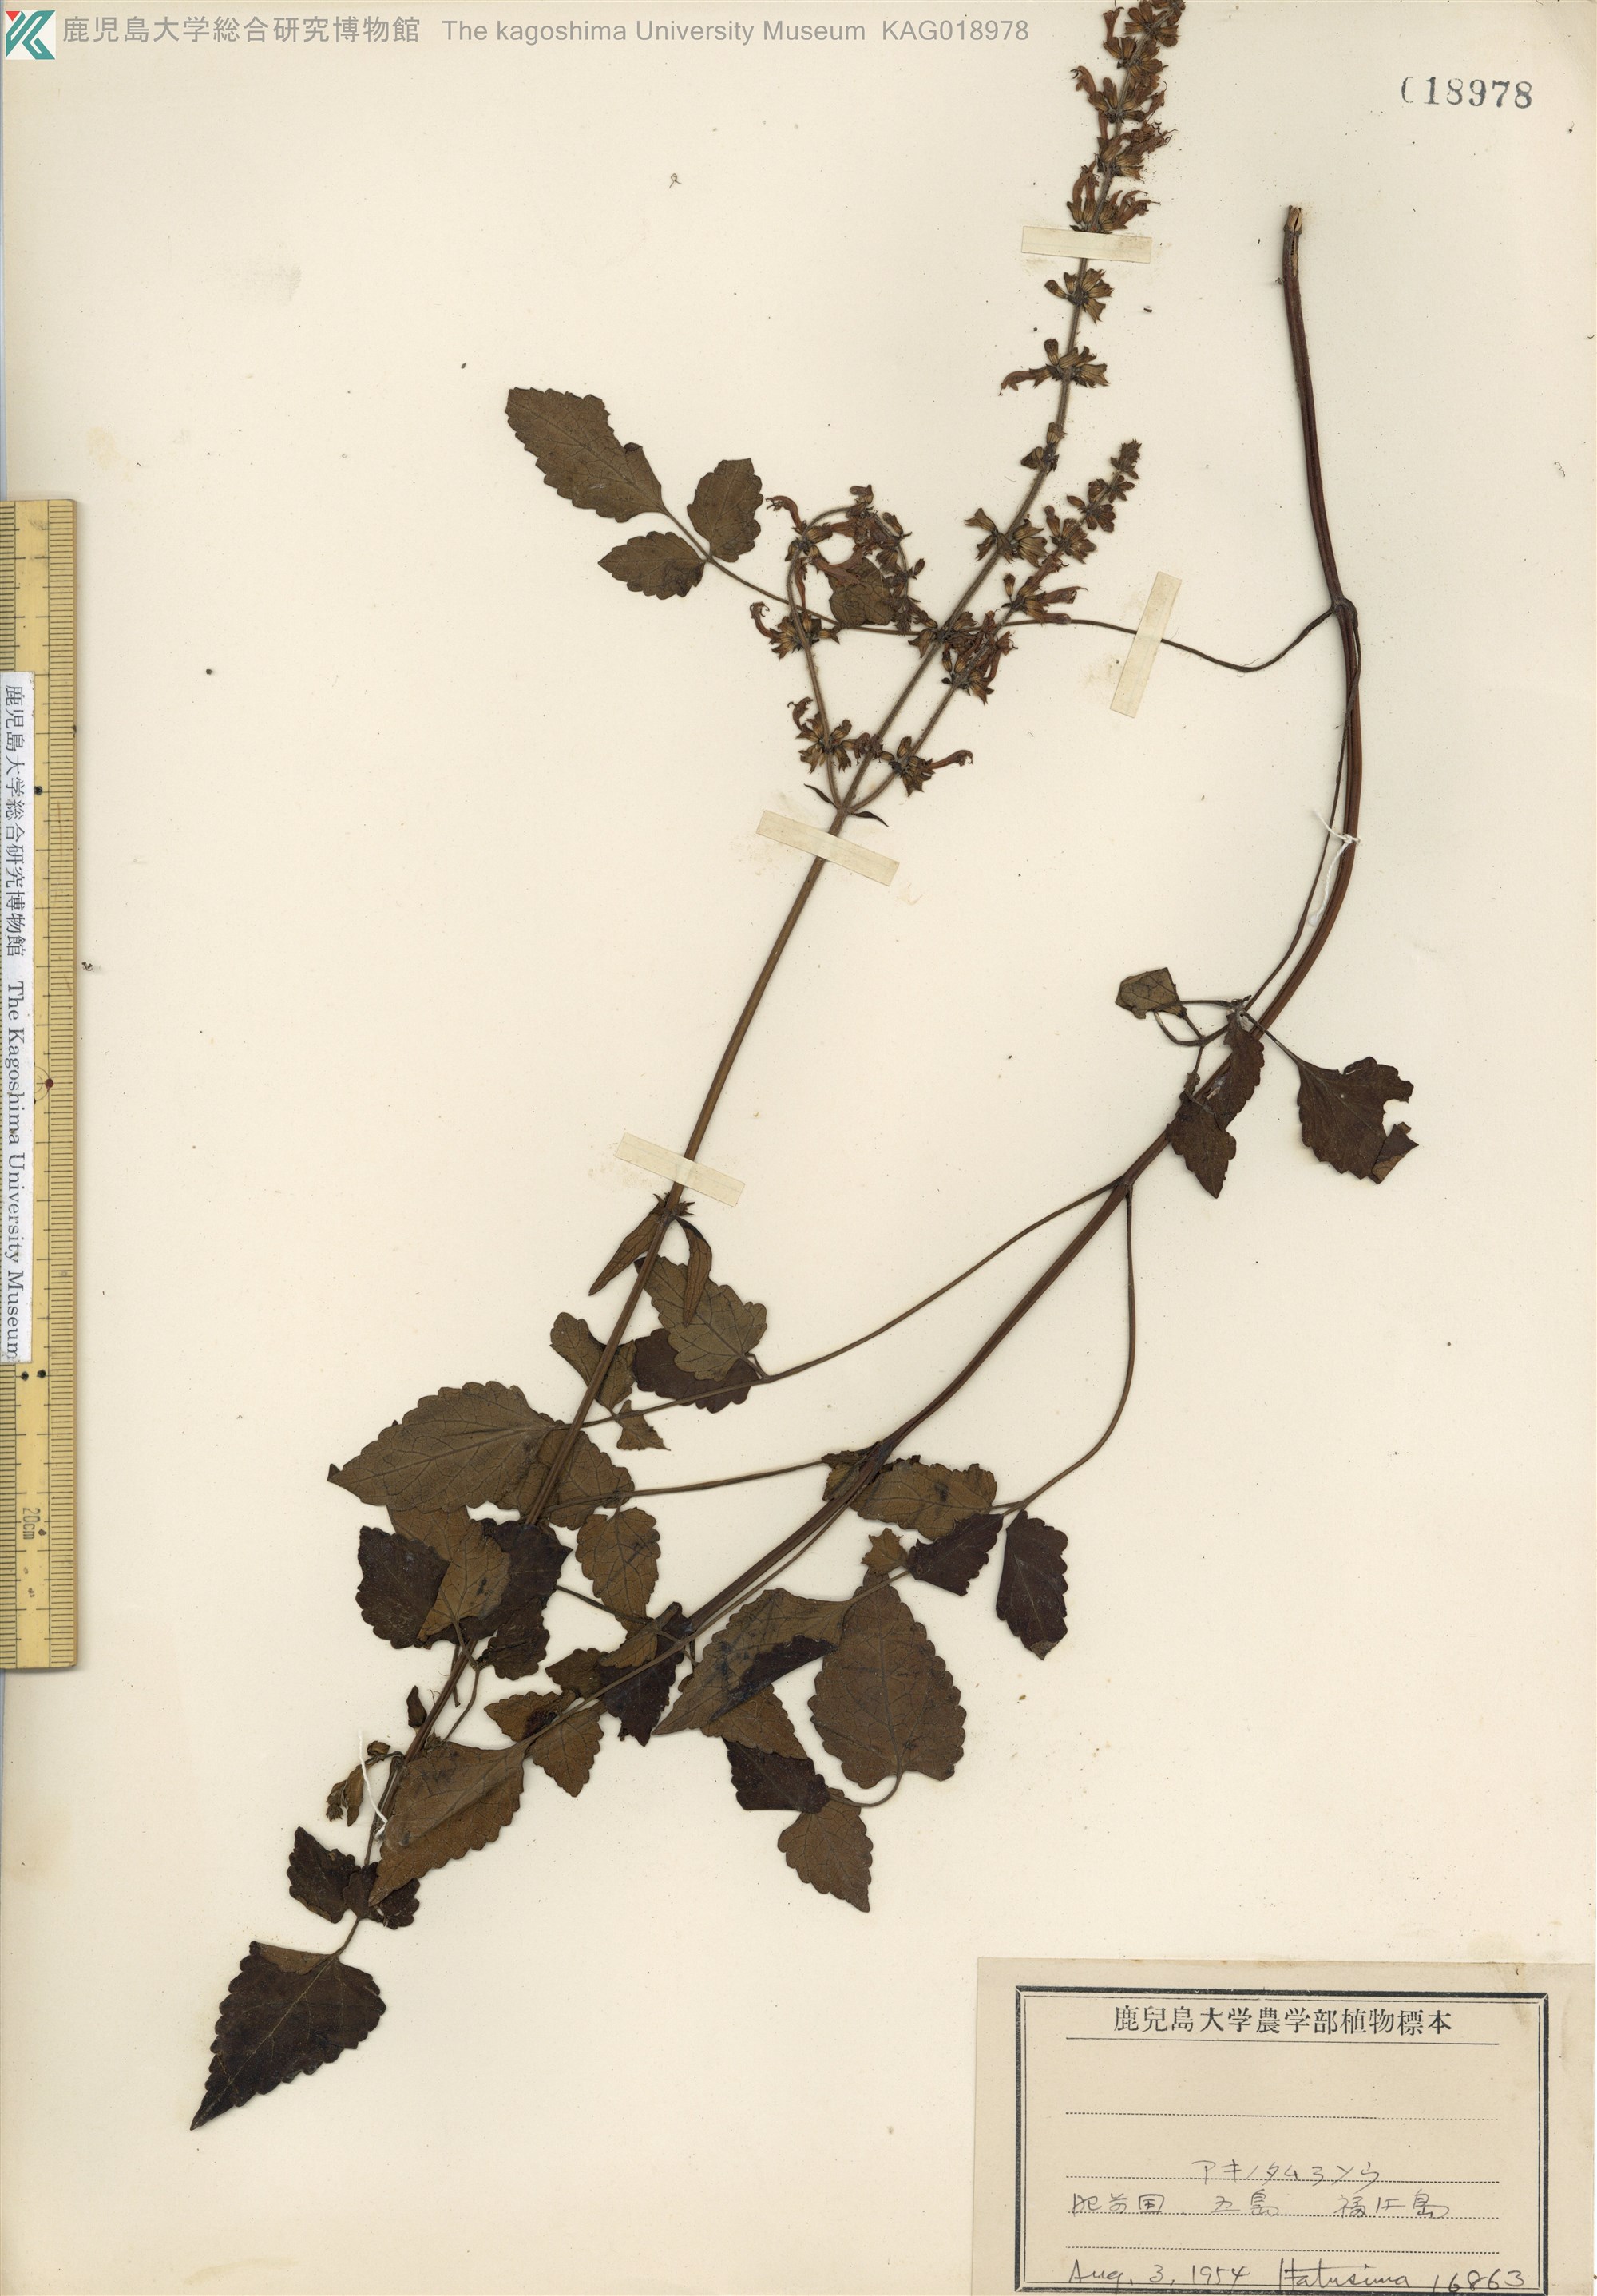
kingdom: Plantae
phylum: Tracheophyta
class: Magnoliopsida
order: Lamiales
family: Lamiaceae
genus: Salvia
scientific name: Salvia japonica
